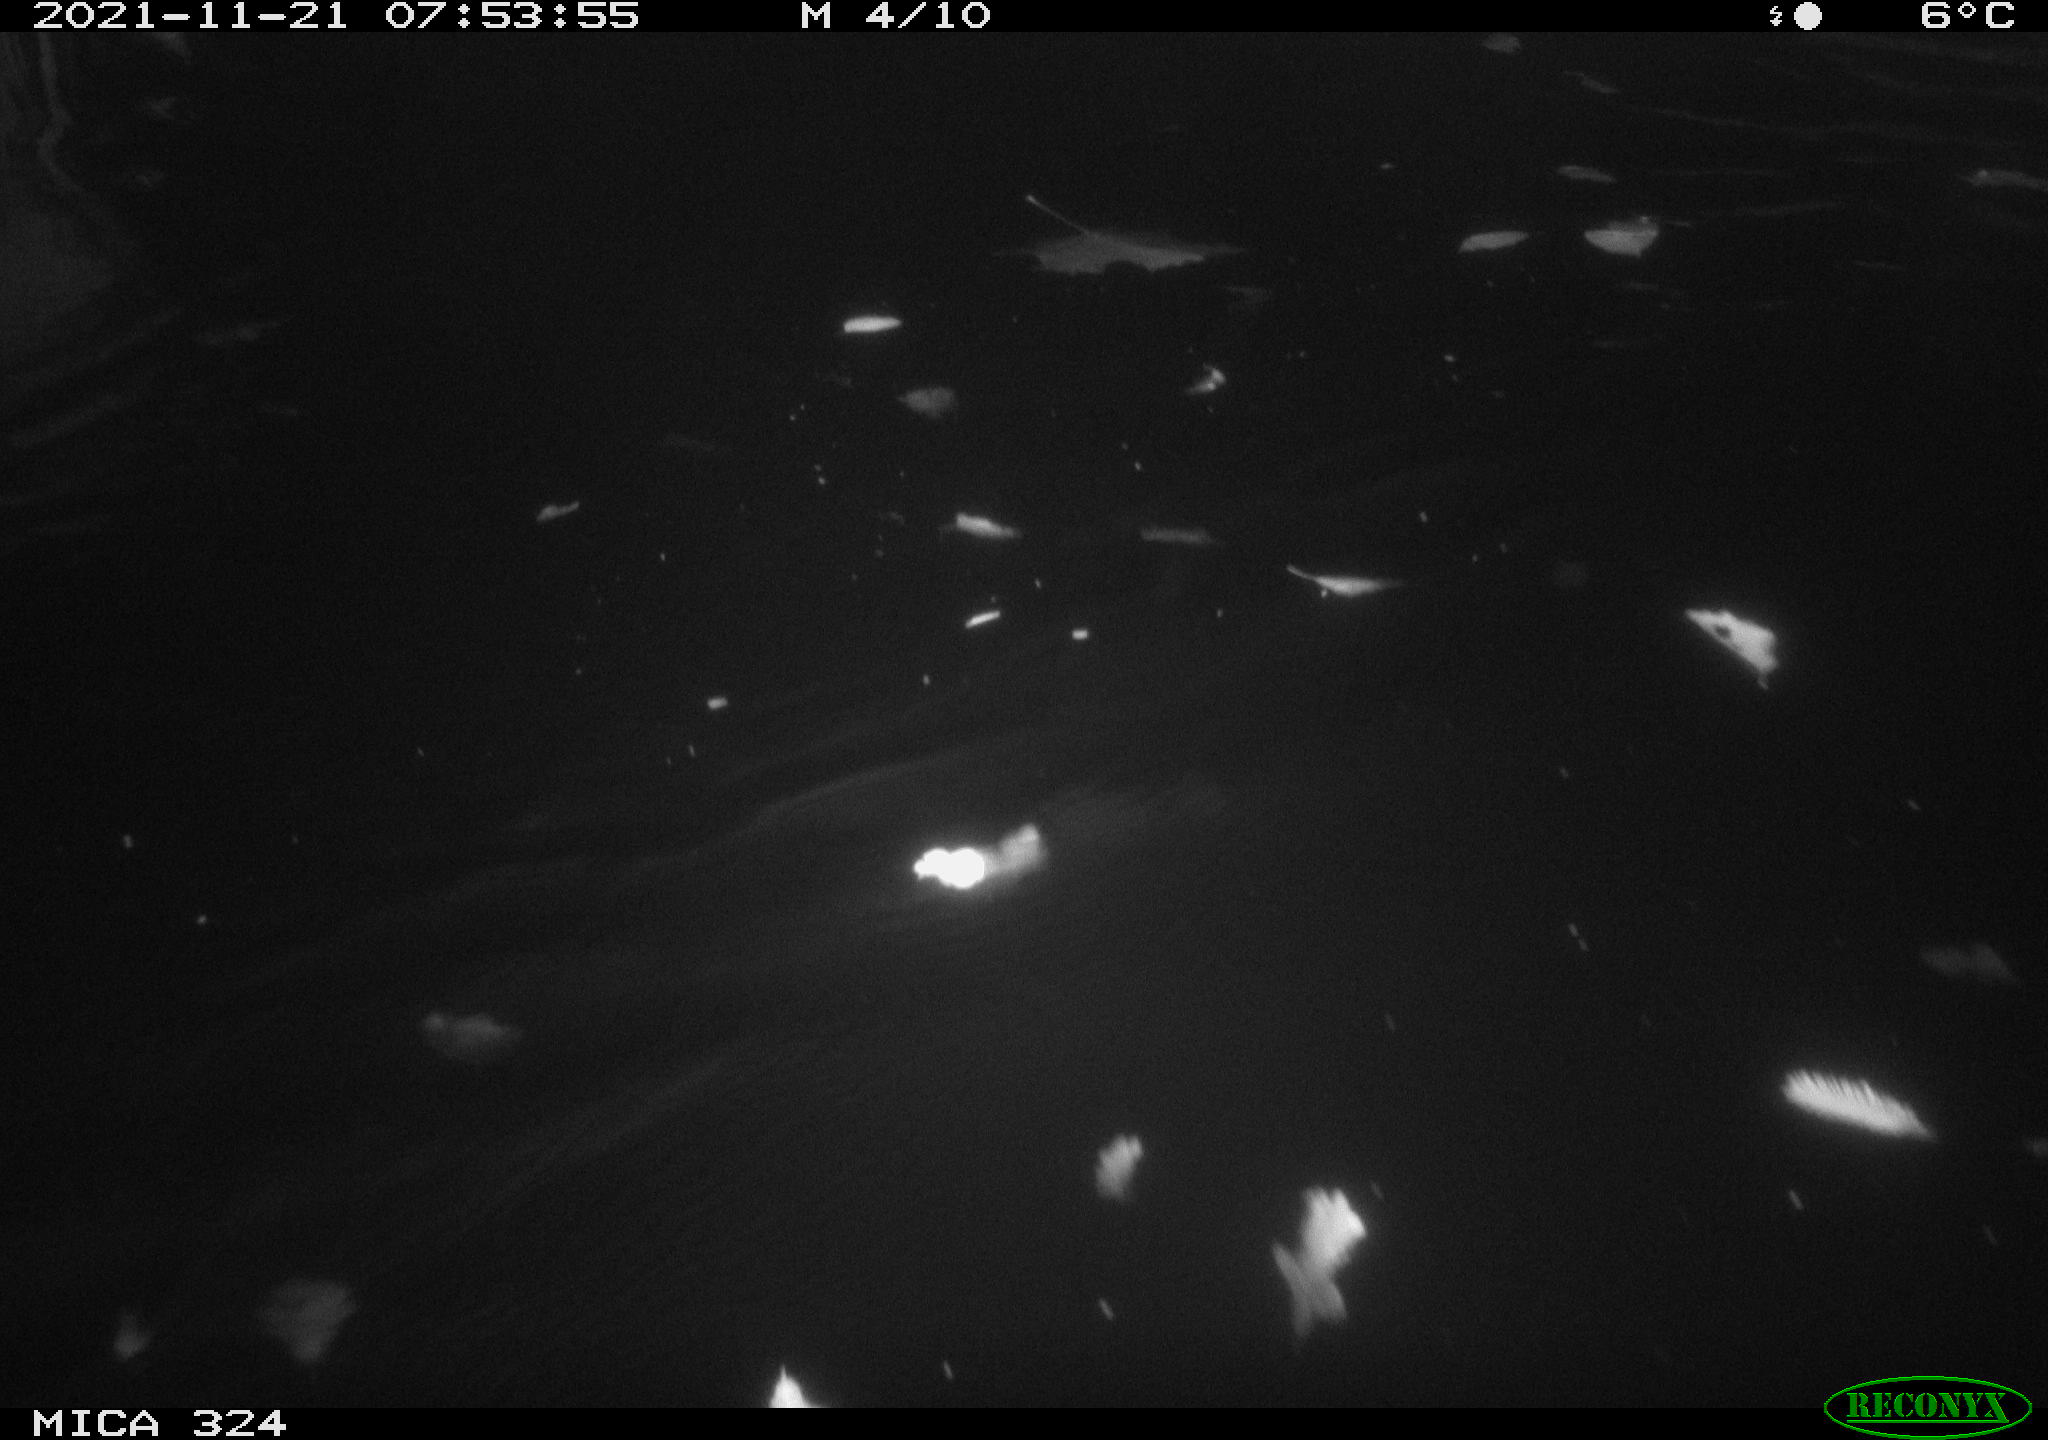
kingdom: Animalia
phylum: Chordata
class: Mammalia
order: Rodentia
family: Cricetidae
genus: Ondatra
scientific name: Ondatra zibethicus
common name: Muskrat
